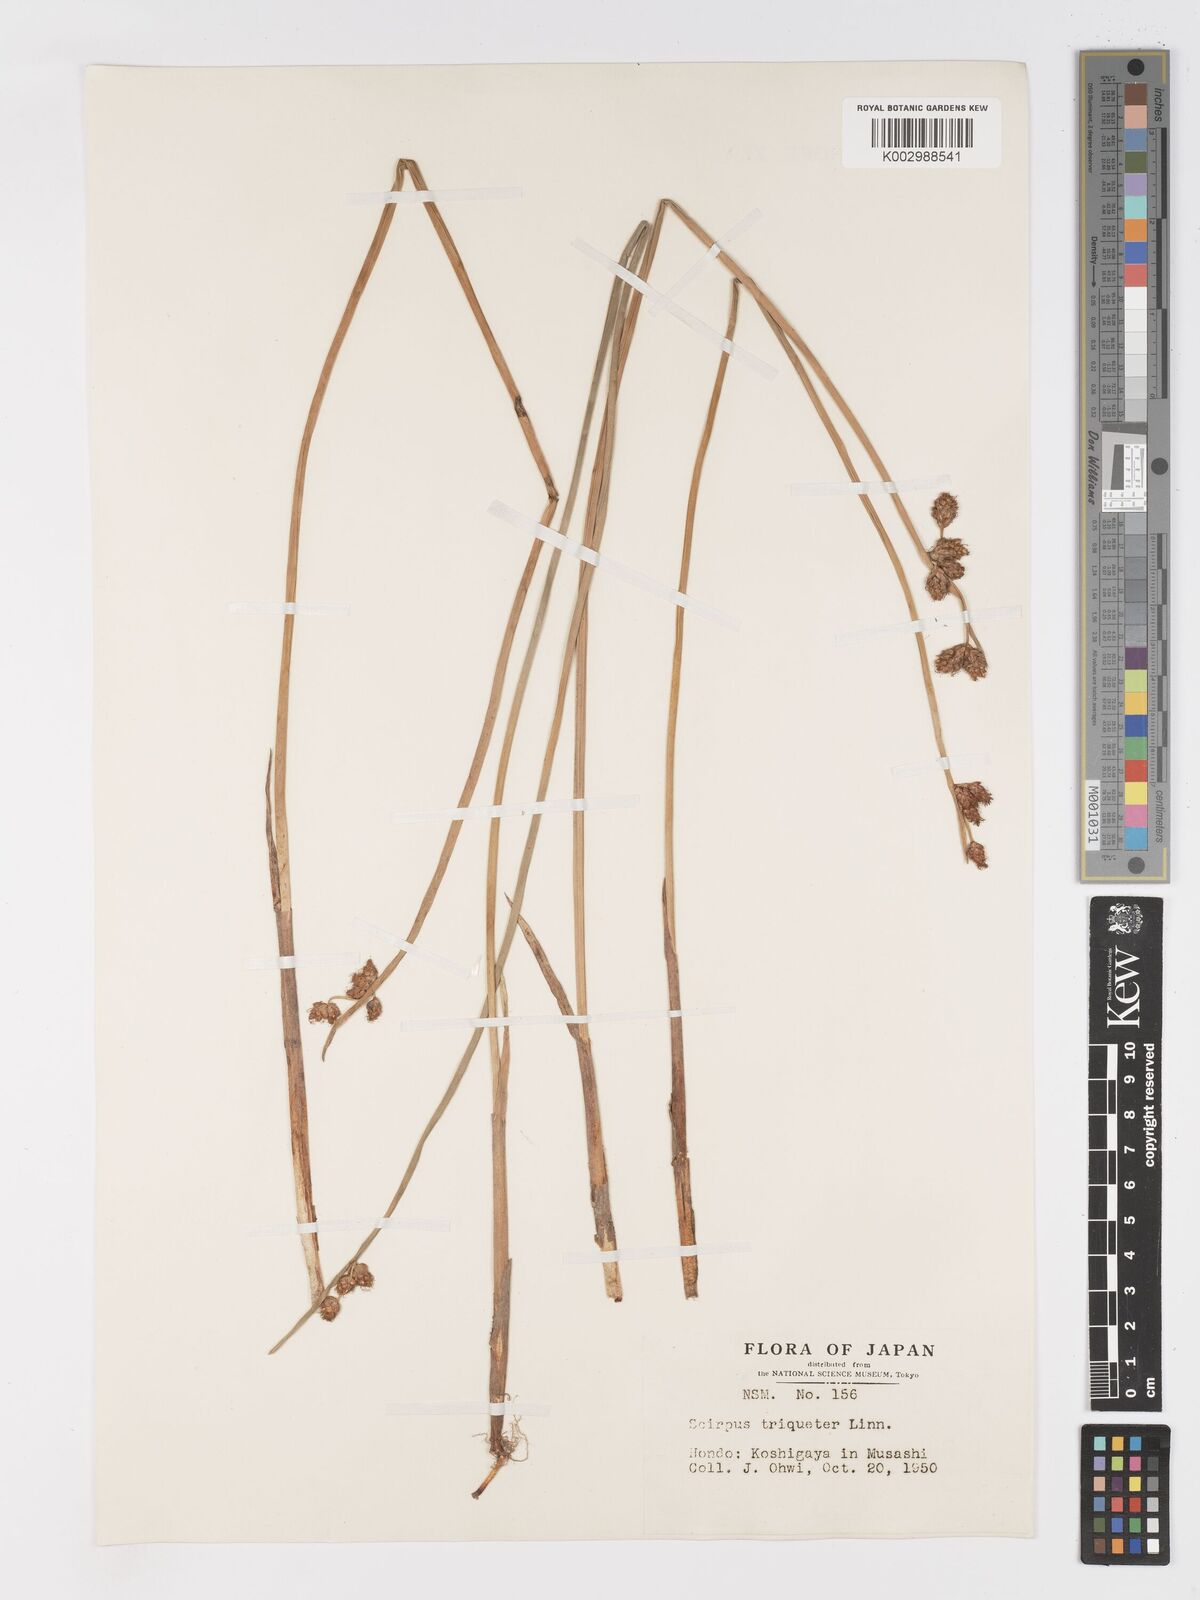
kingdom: Plantae
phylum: Tracheophyta
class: Liliopsida
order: Poales
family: Cyperaceae
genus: Schoenoplectus
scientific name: Schoenoplectus triqueter
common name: Triangular club-rush
